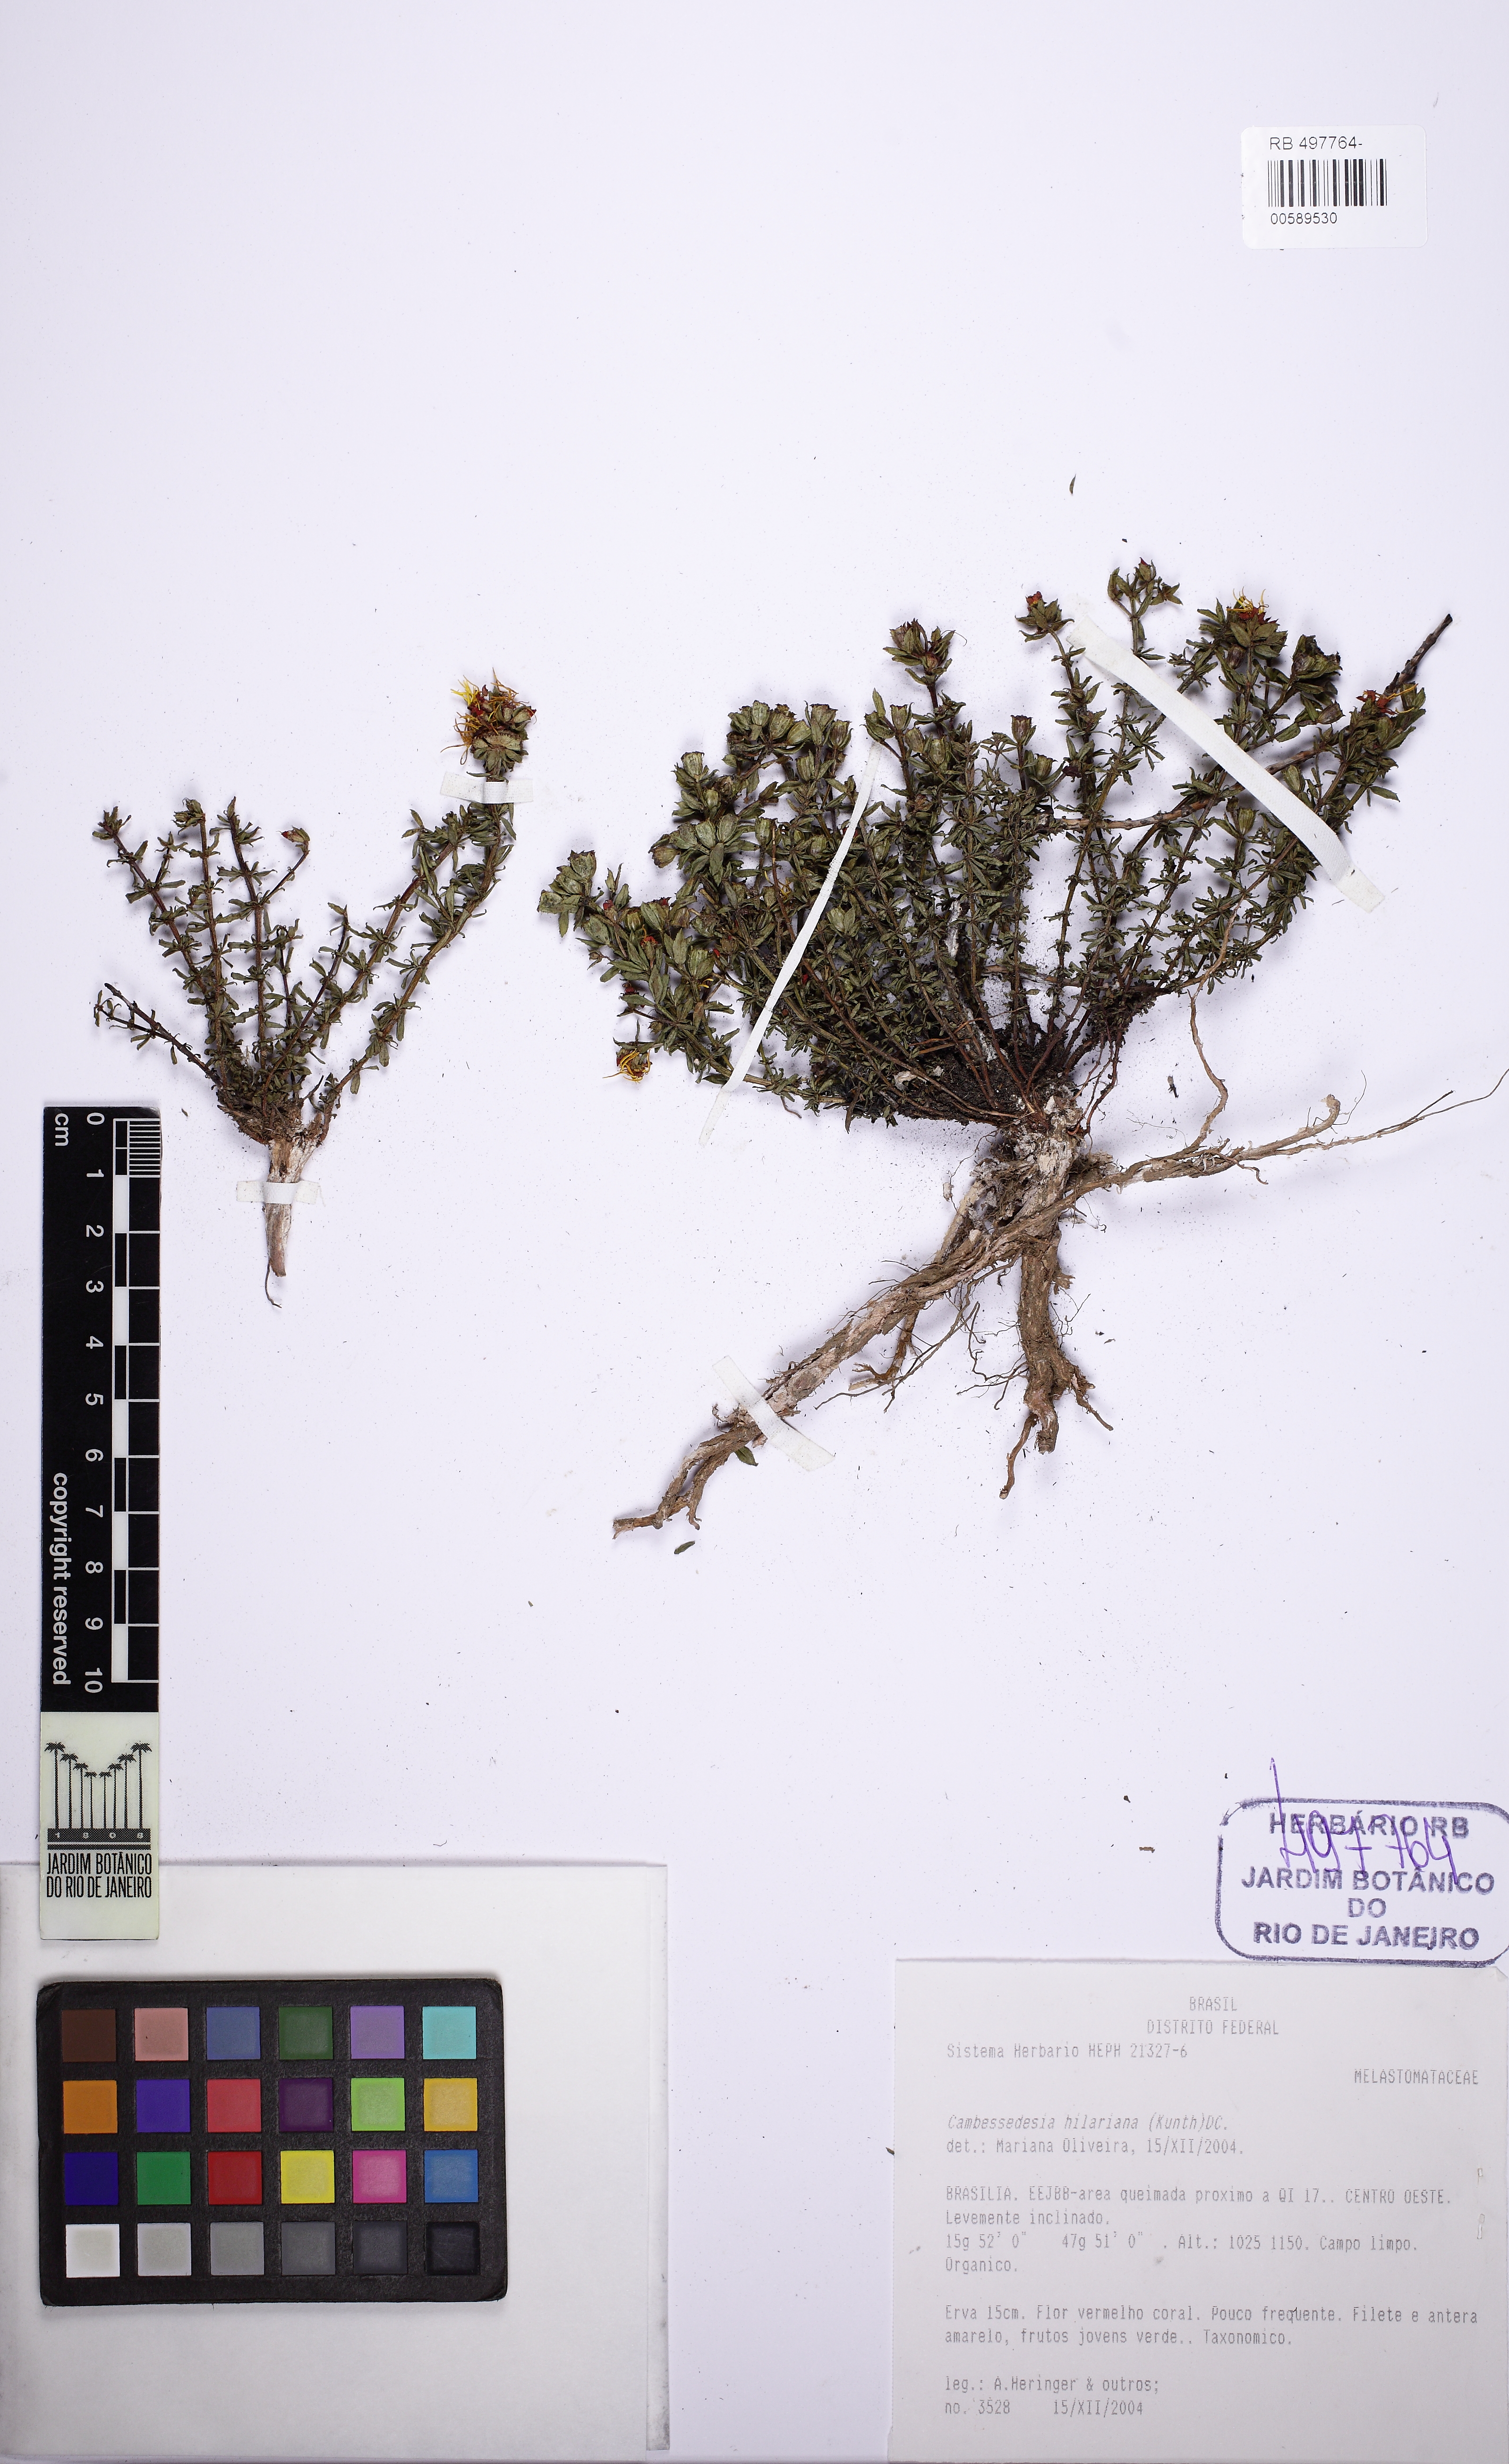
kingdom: Plantae
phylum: Tracheophyta
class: Magnoliopsida
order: Myrtales
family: Melastomataceae
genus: Cambessedesia
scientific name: Cambessedesia hilariana
